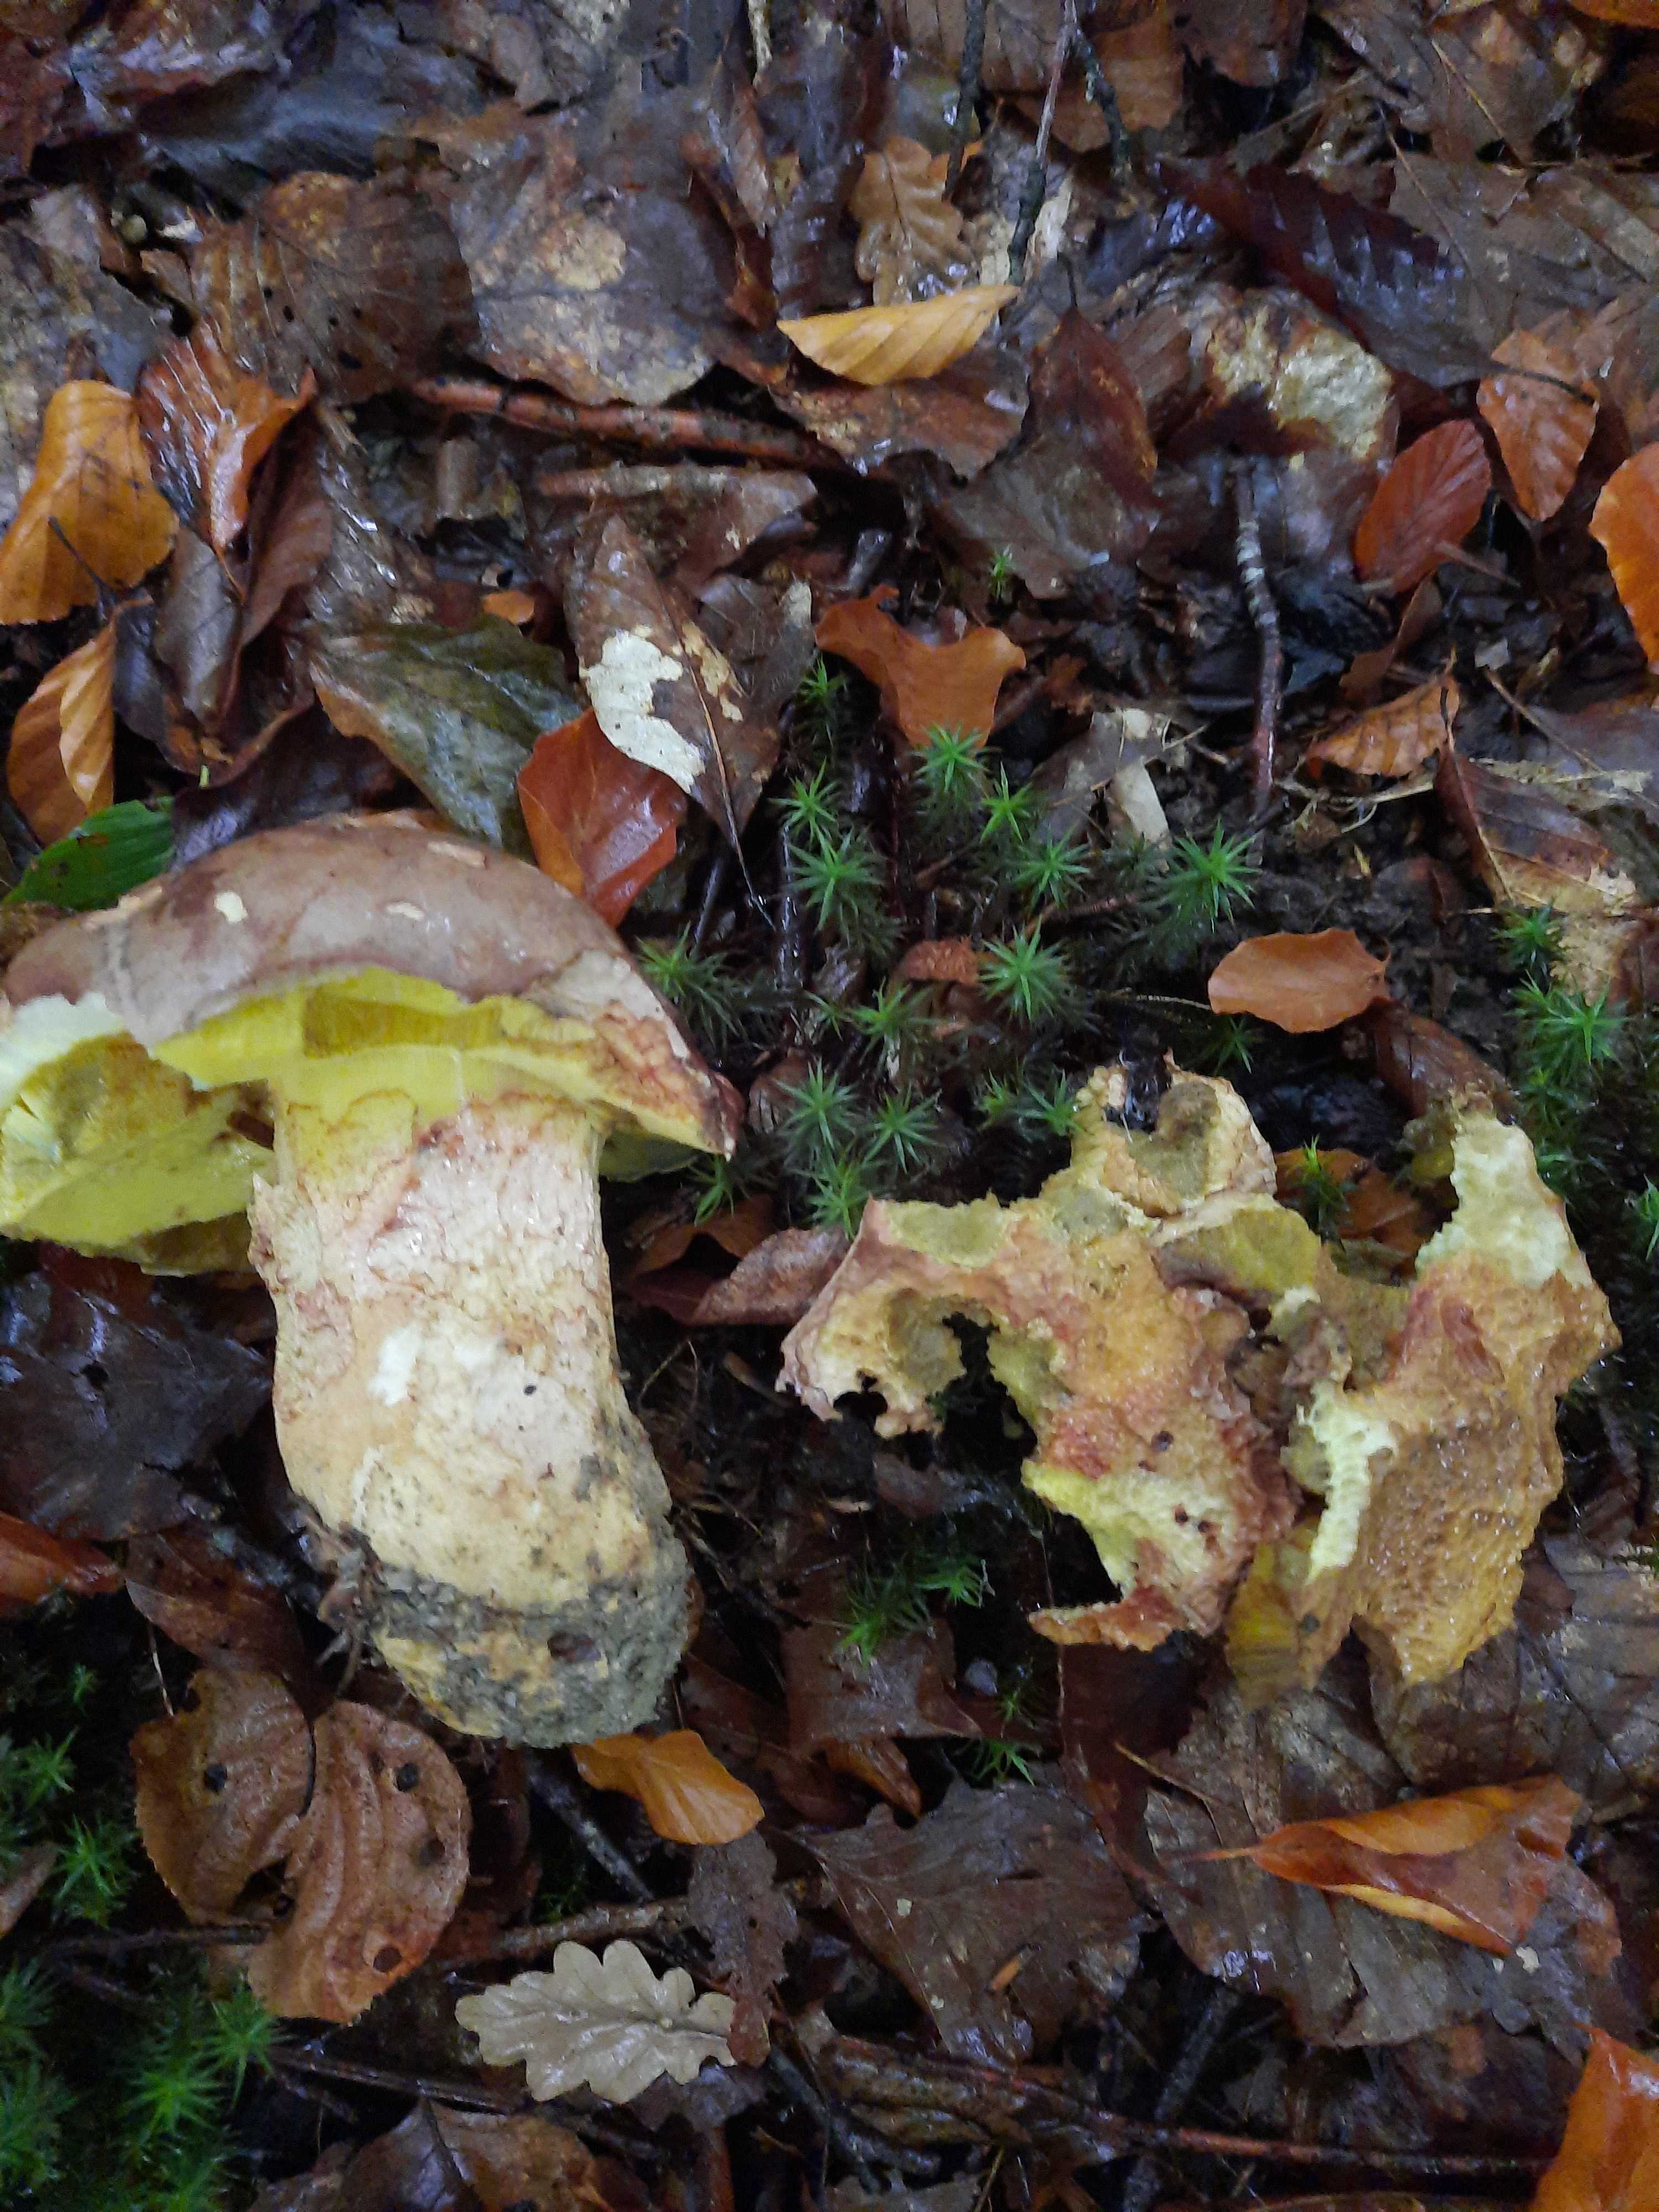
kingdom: Fungi
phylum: Basidiomycota
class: Agaricomycetes
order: Boletales
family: Boletaceae
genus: Butyriboletus
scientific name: Butyriboletus appendiculatus
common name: tenstokket rørhat
